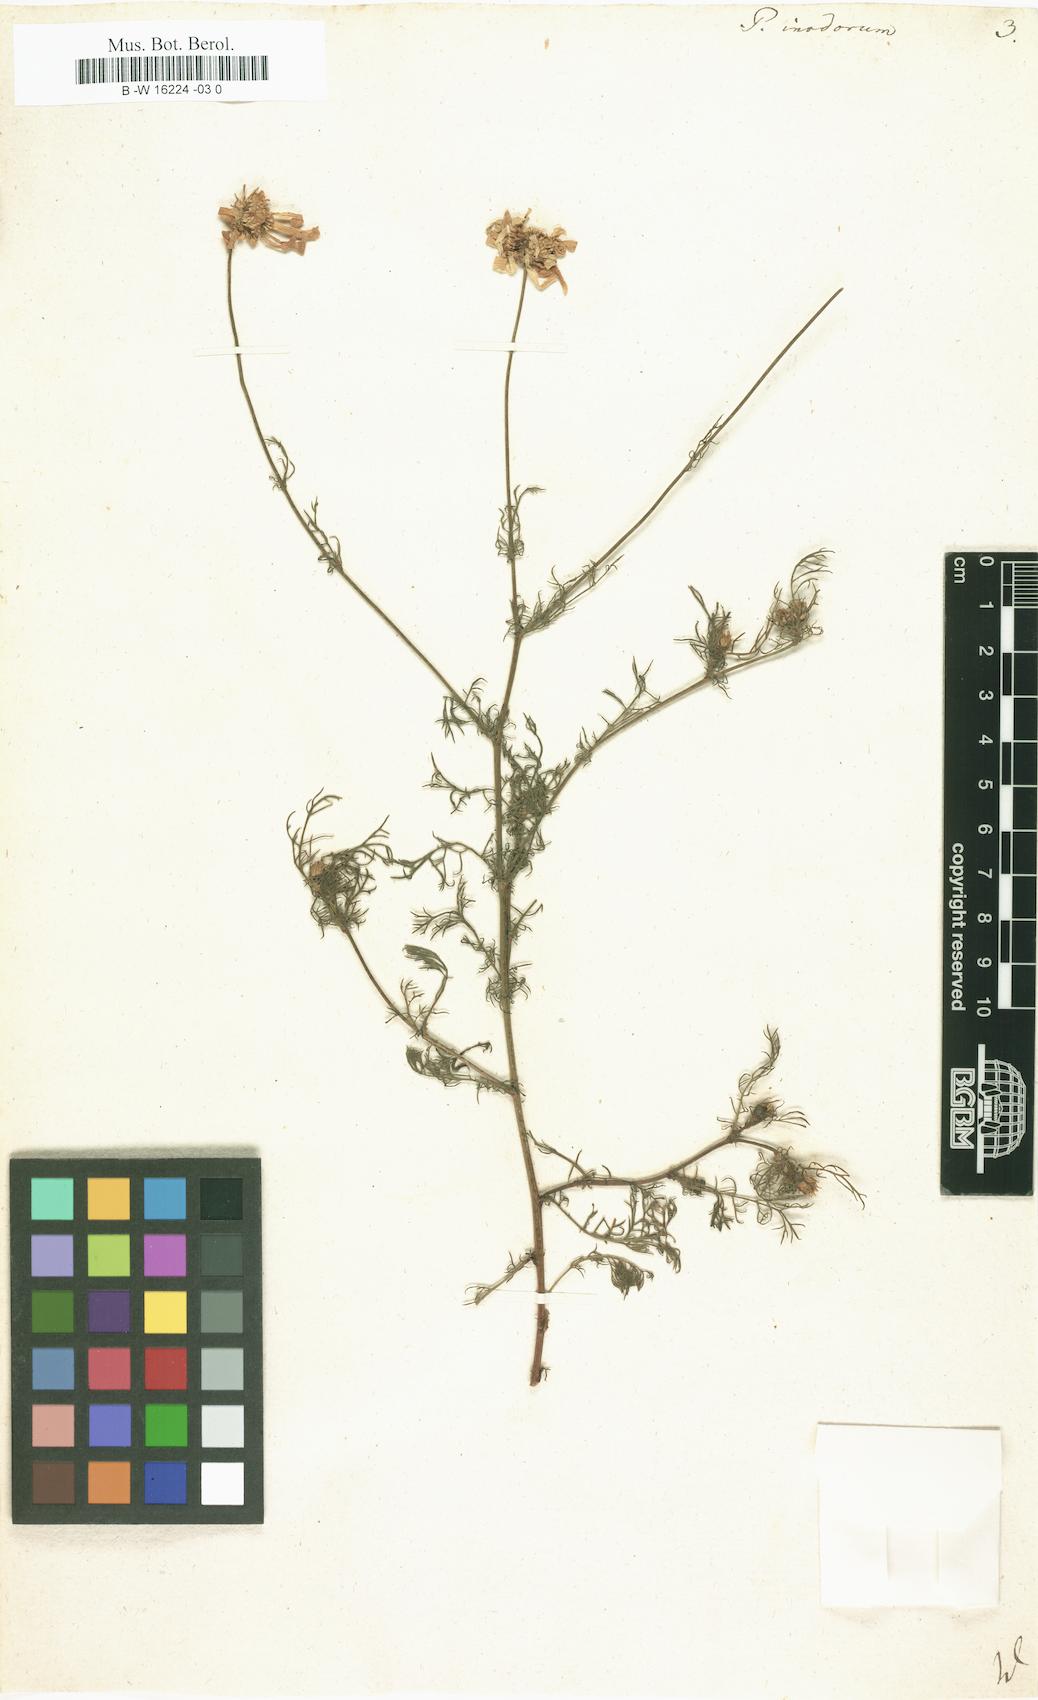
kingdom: Plantae
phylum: Tracheophyta
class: Magnoliopsida
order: Asterales
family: Asteraceae
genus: Tripleurospermum
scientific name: Tripleurospermum inodorum
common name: Scentless mayweed
